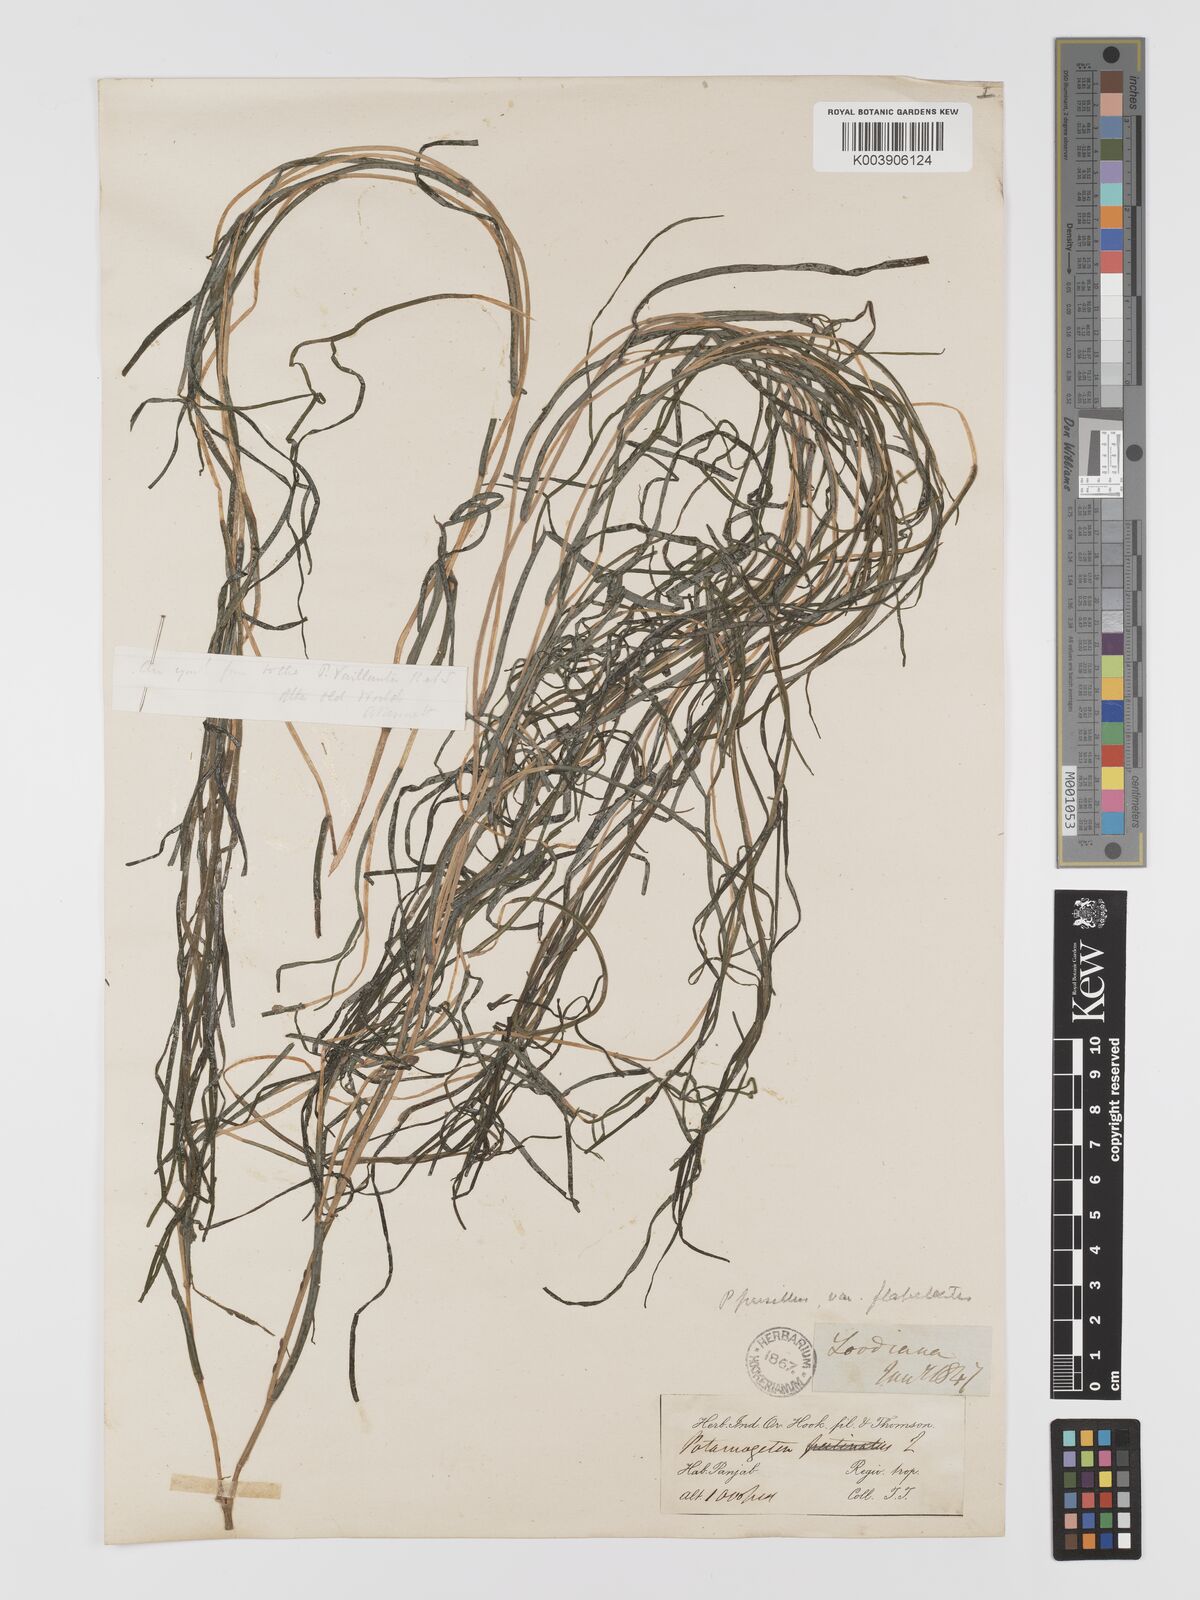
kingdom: Plantae
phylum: Tracheophyta
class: Liliopsida
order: Alismatales
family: Potamogetonaceae
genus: Stuckenia
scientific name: Stuckenia pectinata
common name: Sago pondweed
